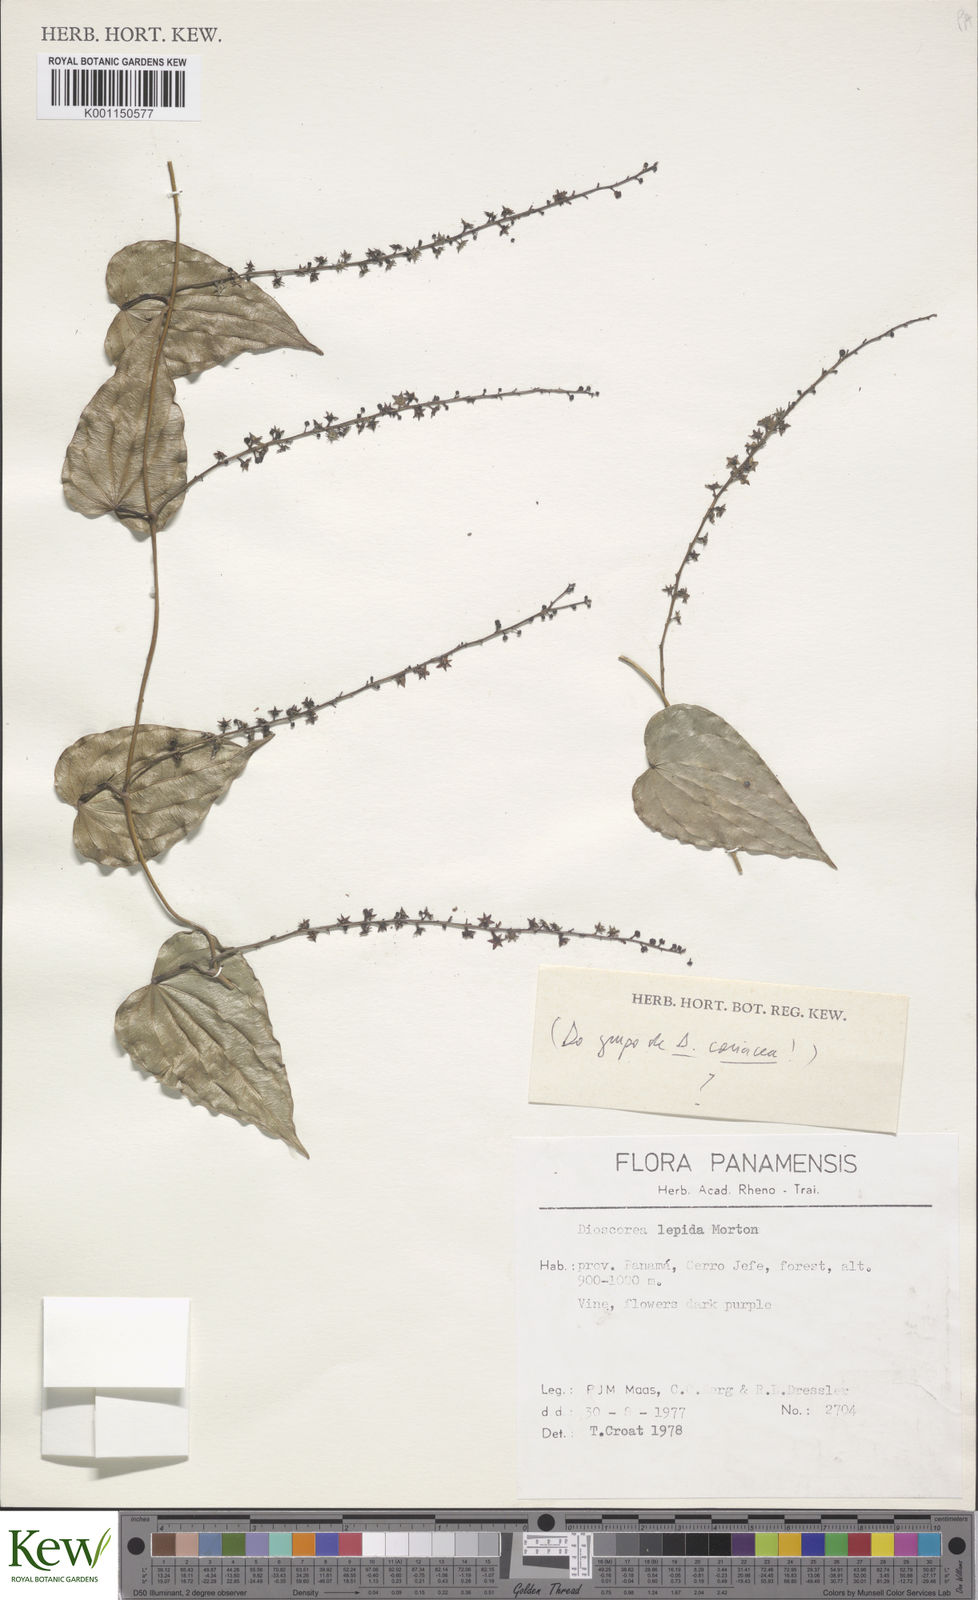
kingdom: Plantae
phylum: Tracheophyta
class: Liliopsida
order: Dioscoreales
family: Dioscoreaceae
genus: Dioscorea
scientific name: Dioscorea lepida
